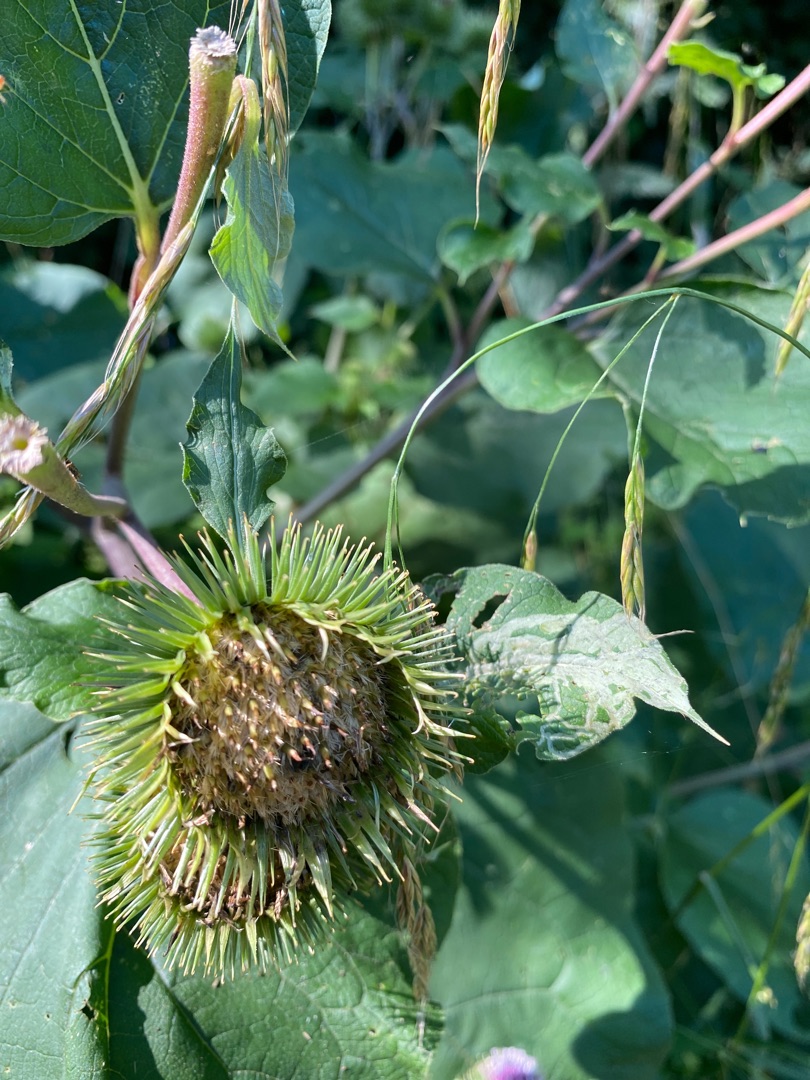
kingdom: Plantae
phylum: Tracheophyta
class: Magnoliopsida
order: Asterales
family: Asteraceae
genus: Arctium
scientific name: Arctium lappa
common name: Glat burre
